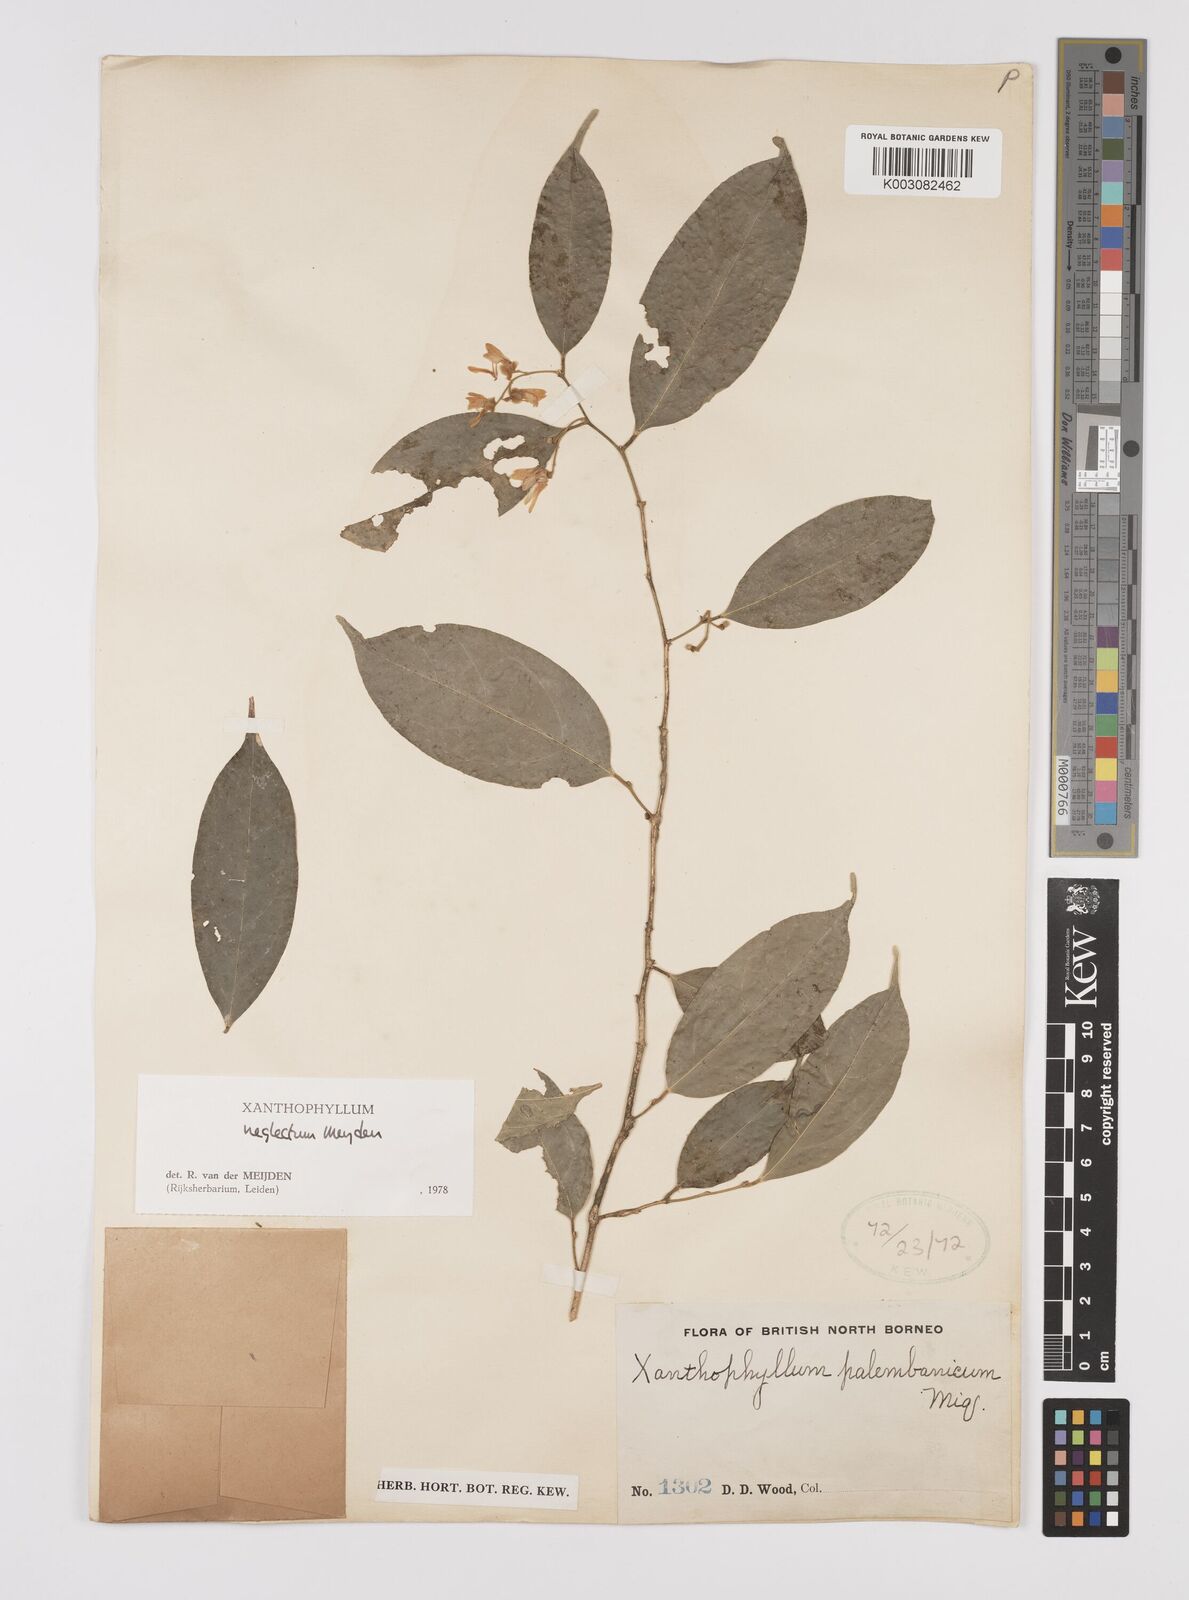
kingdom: Plantae
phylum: Tracheophyta
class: Magnoliopsida
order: Fabales
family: Polygalaceae
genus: Xanthophyllum
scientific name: Xanthophyllum neglectum
